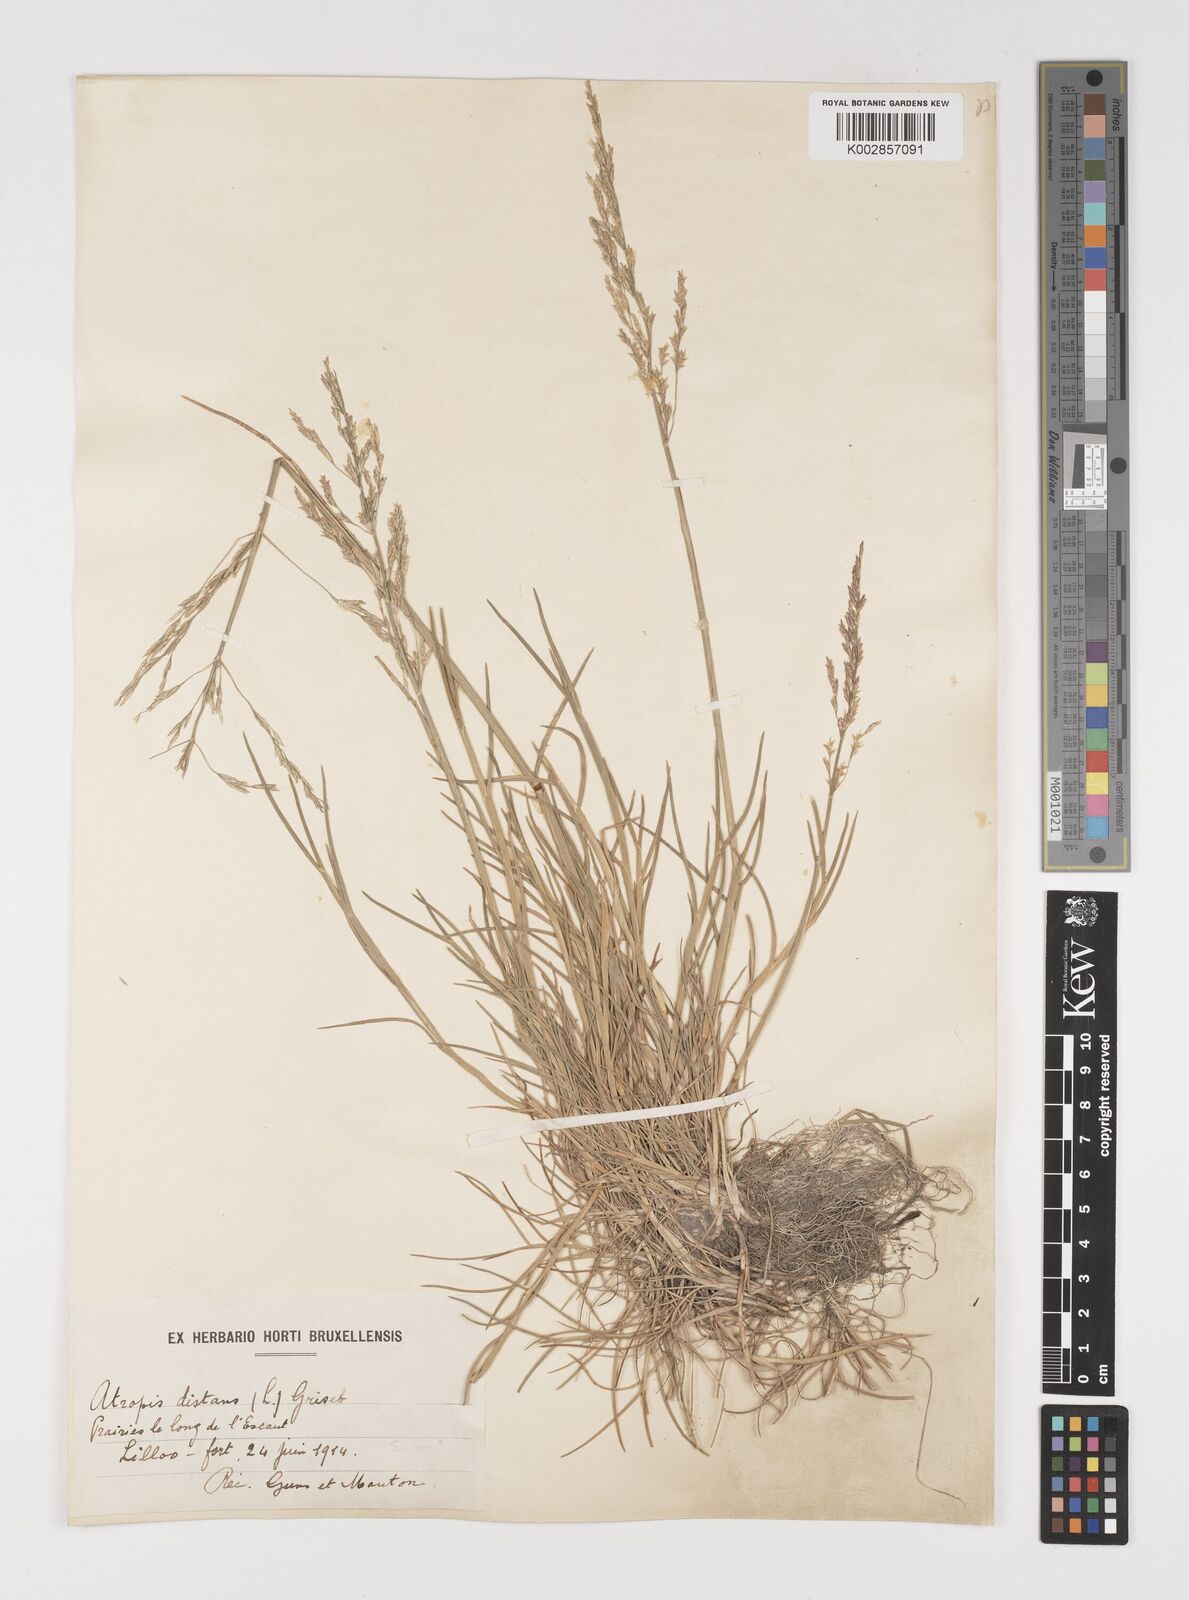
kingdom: Plantae
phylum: Tracheophyta
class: Liliopsida
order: Poales
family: Poaceae
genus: Puccinellia
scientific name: Puccinellia maritima
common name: Common saltmarsh grass
